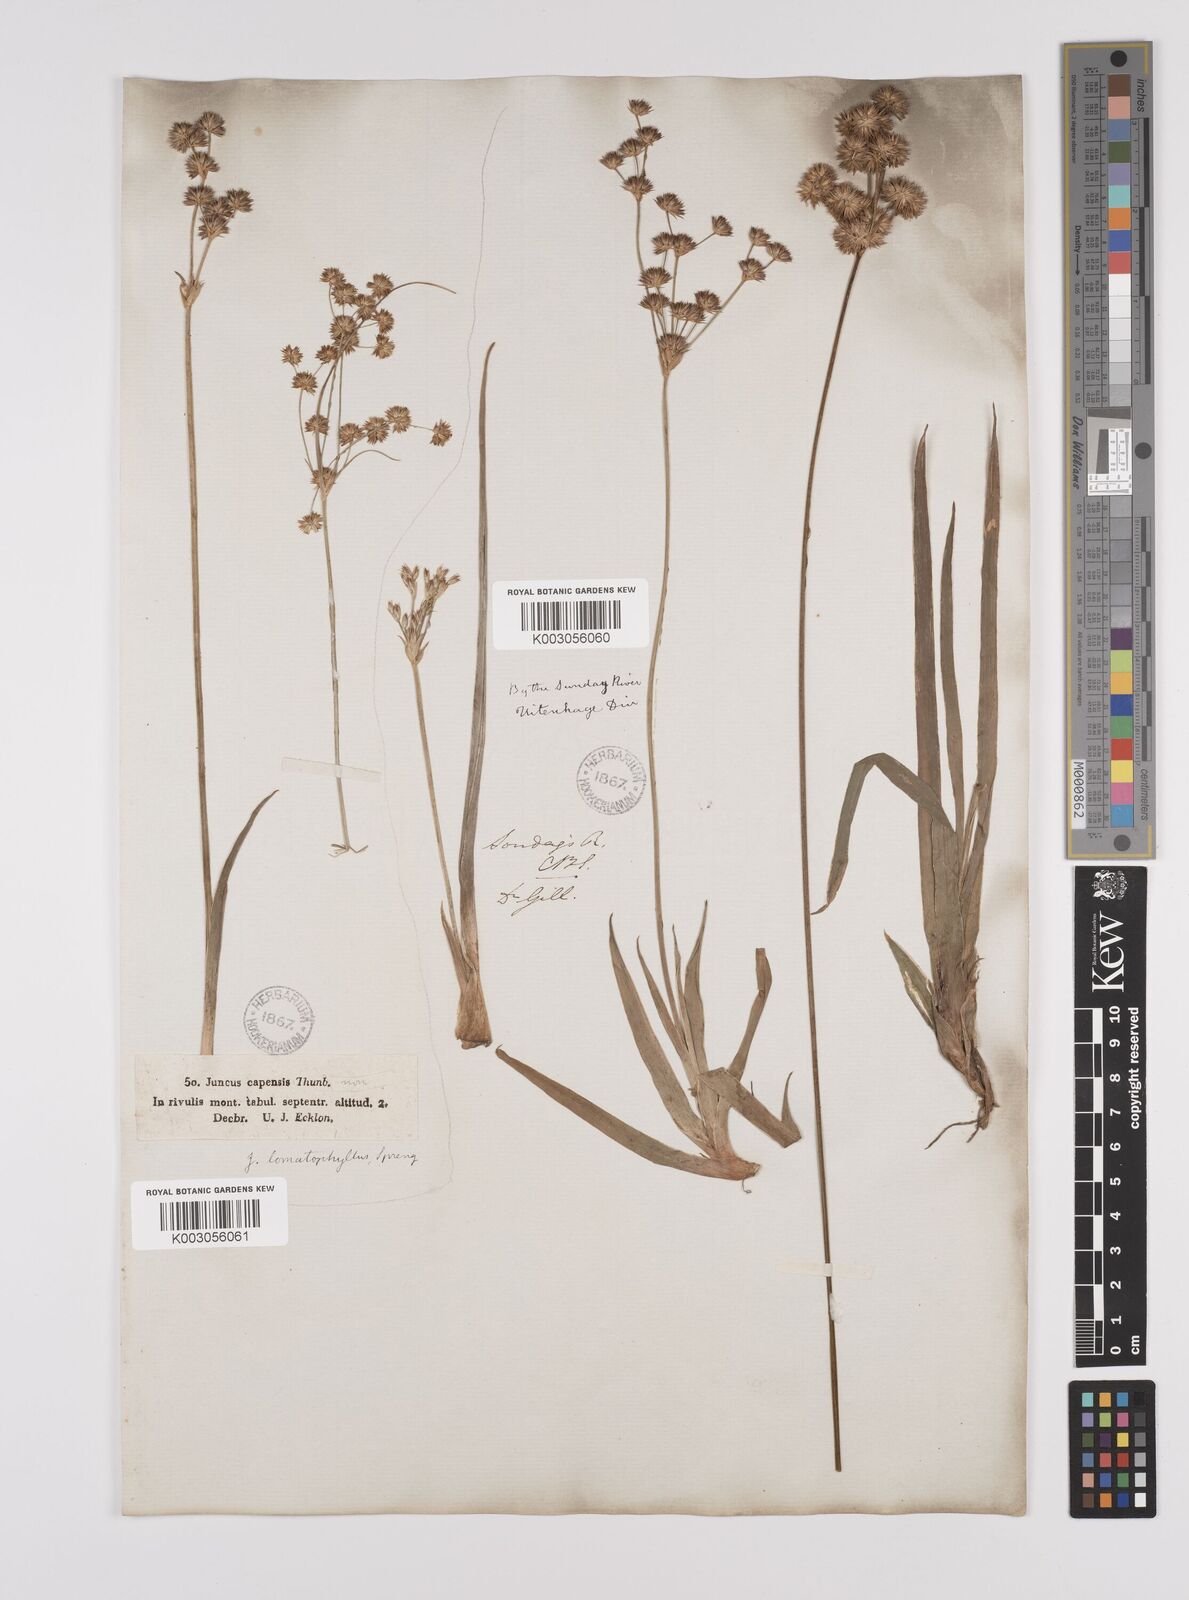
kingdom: Plantae
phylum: Tracheophyta
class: Liliopsida
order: Poales
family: Juncaceae
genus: Juncus
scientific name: Juncus lomatophyllus
